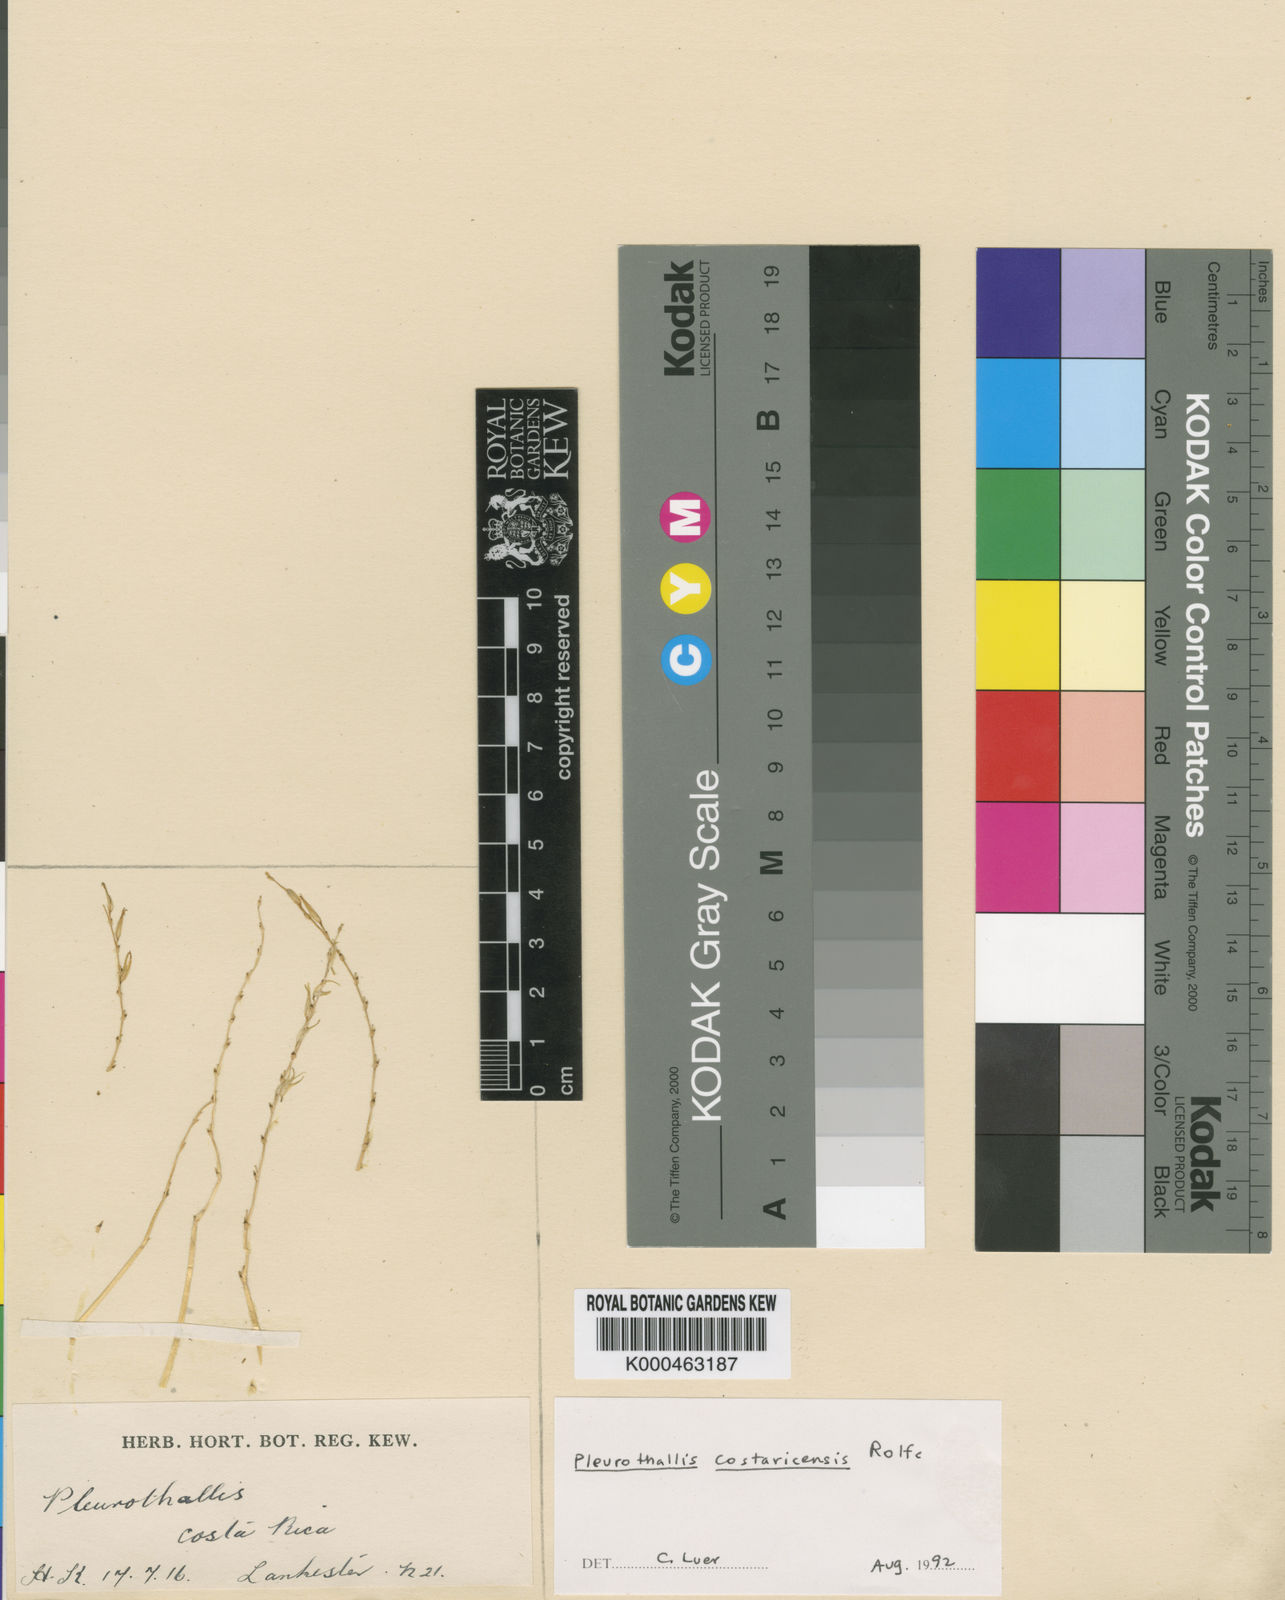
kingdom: Plantae
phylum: Tracheophyta
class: Liliopsida
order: Asparagales
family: Orchidaceae
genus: Specklinia
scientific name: Specklinia costaricensis
